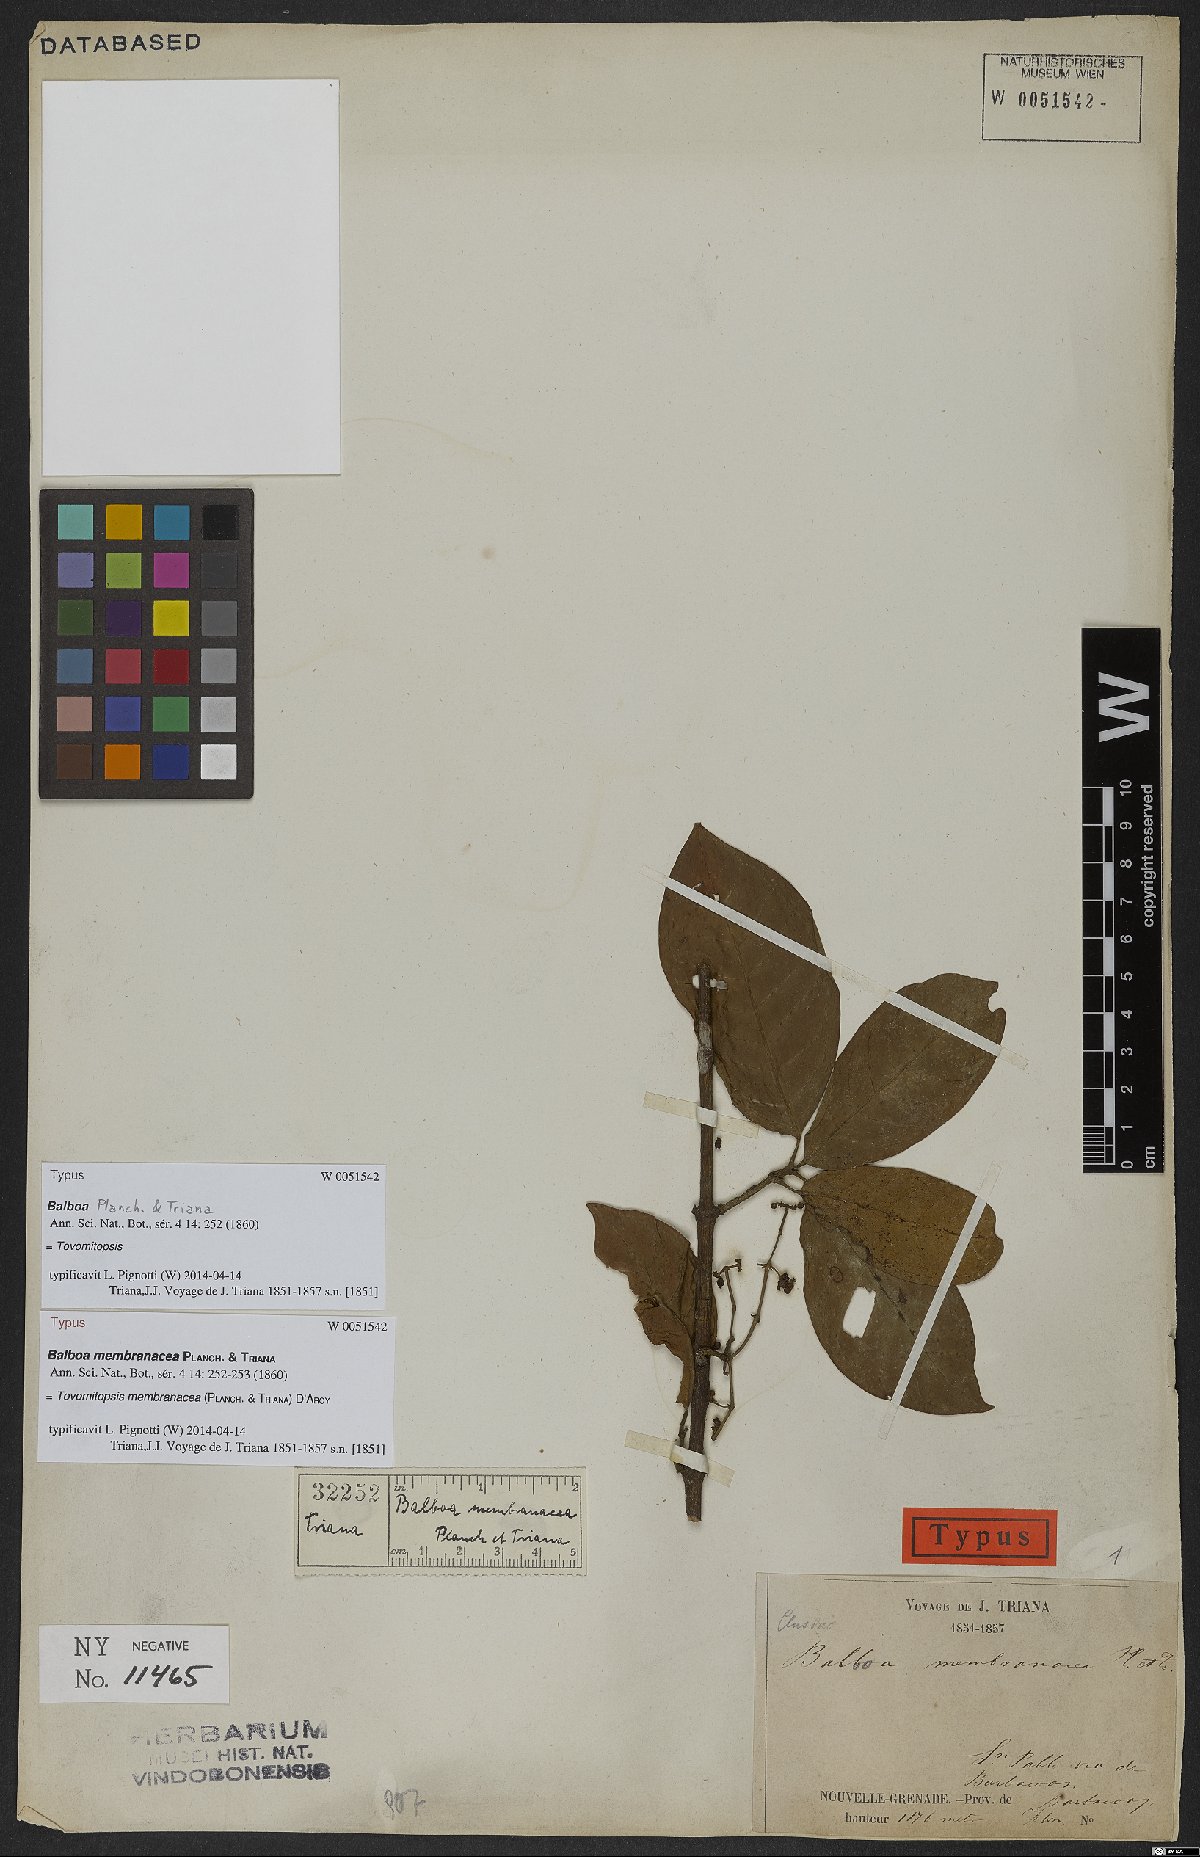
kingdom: Plantae
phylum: Tracheophyta
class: Magnoliopsida
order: Malpighiales
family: Clusiaceae
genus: Chrysochlamys
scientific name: Chrysochlamys membranacea
